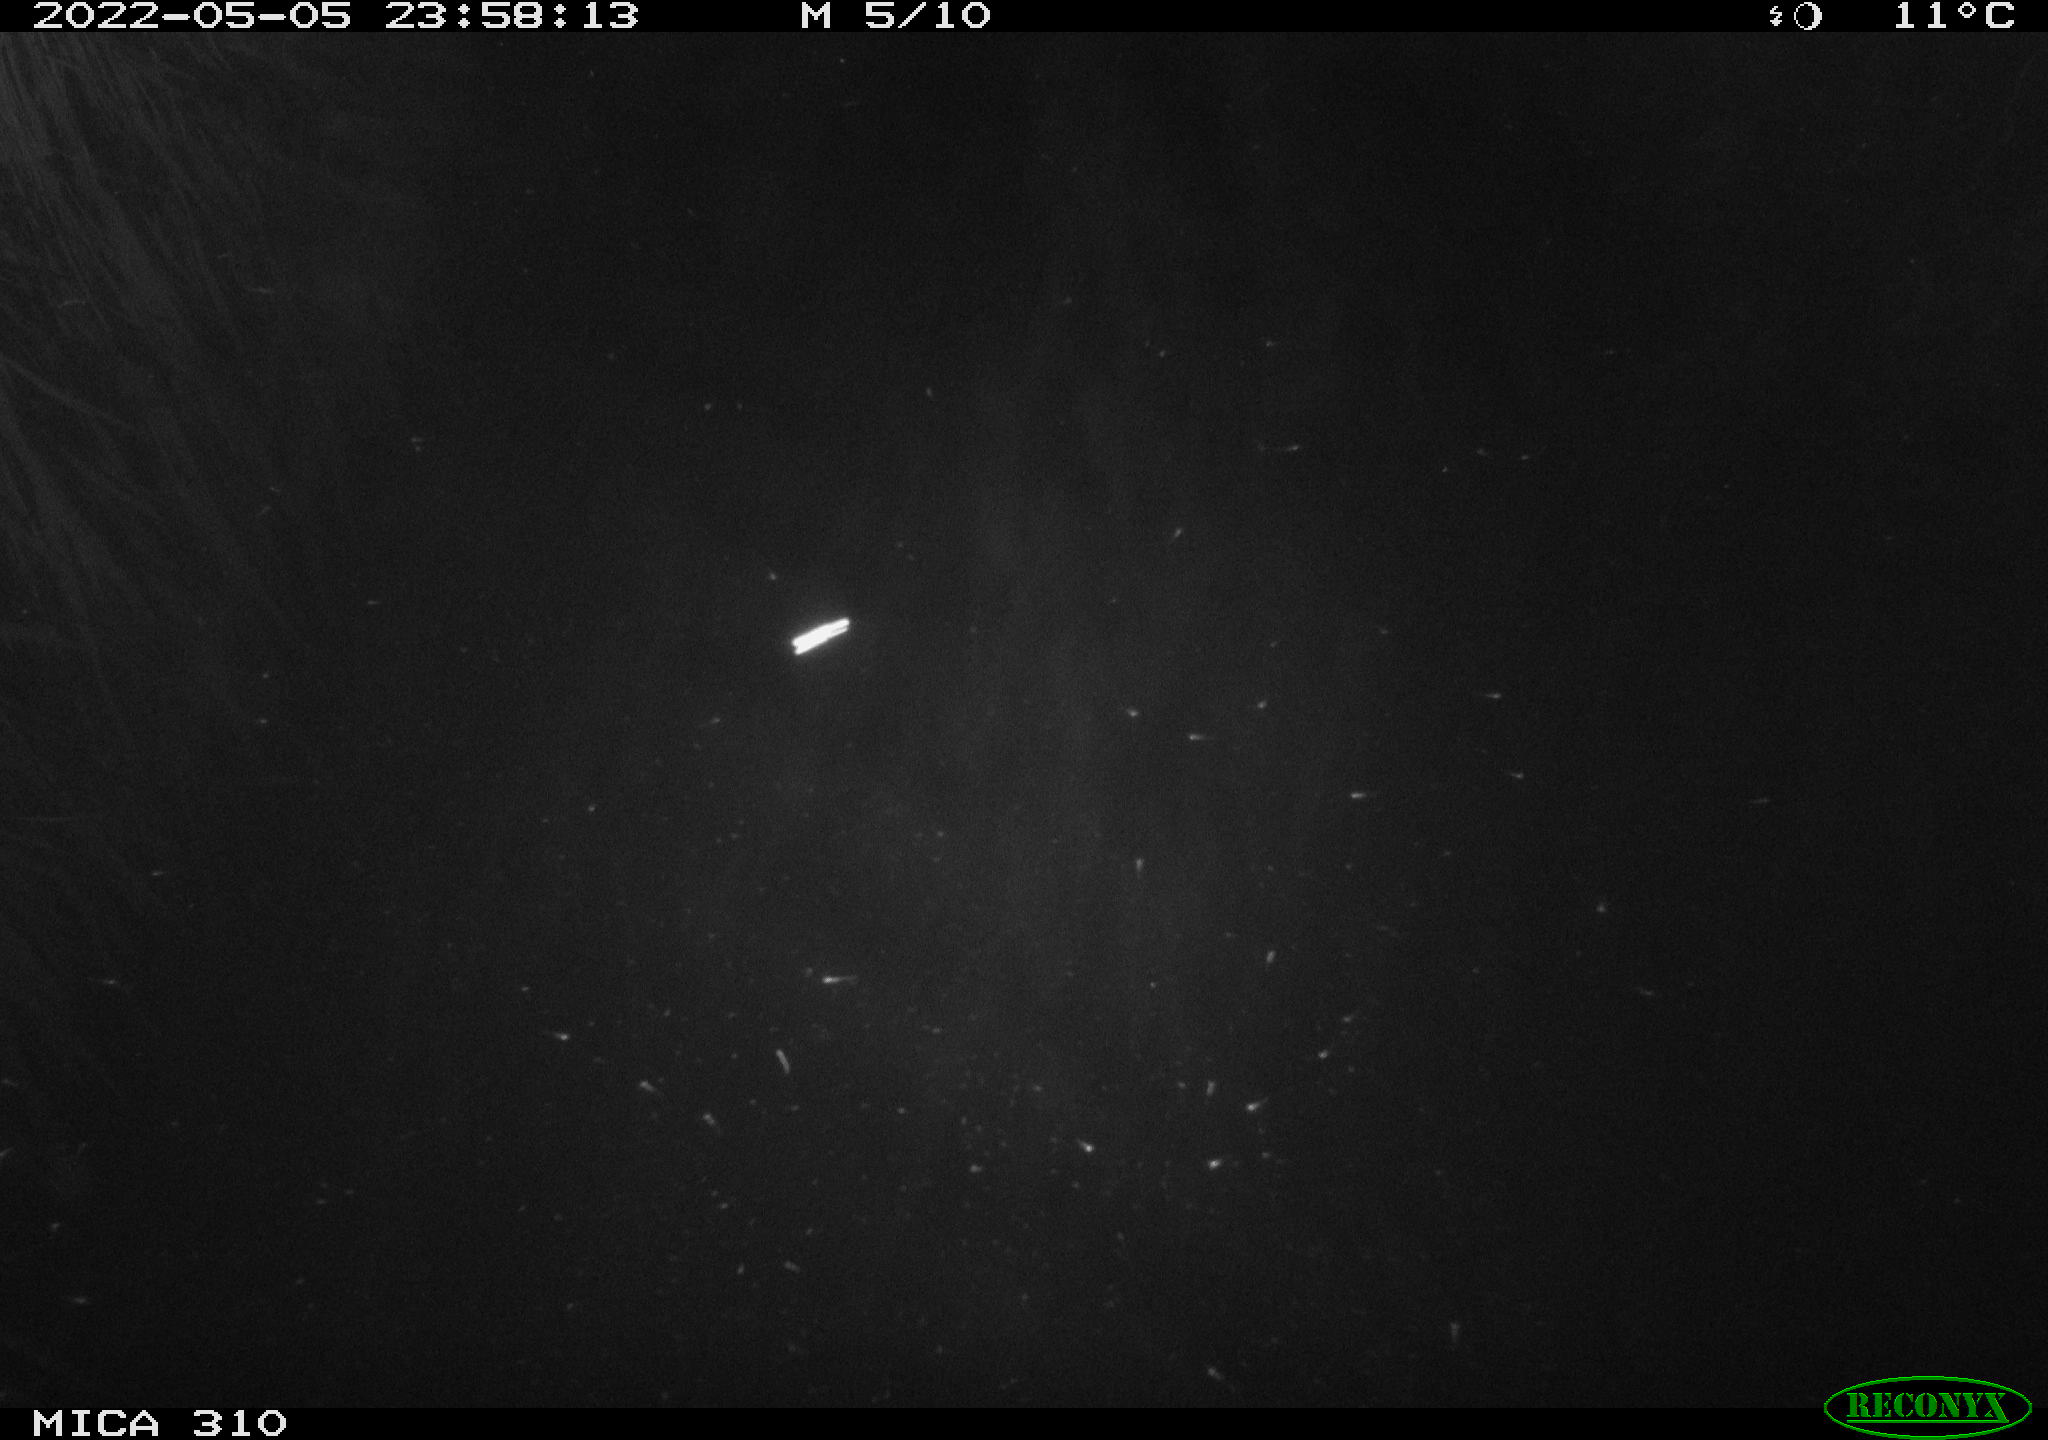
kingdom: Animalia
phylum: Chordata
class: Mammalia
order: Rodentia
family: Cricetidae
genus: Ondatra
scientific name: Ondatra zibethicus
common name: Muskrat
